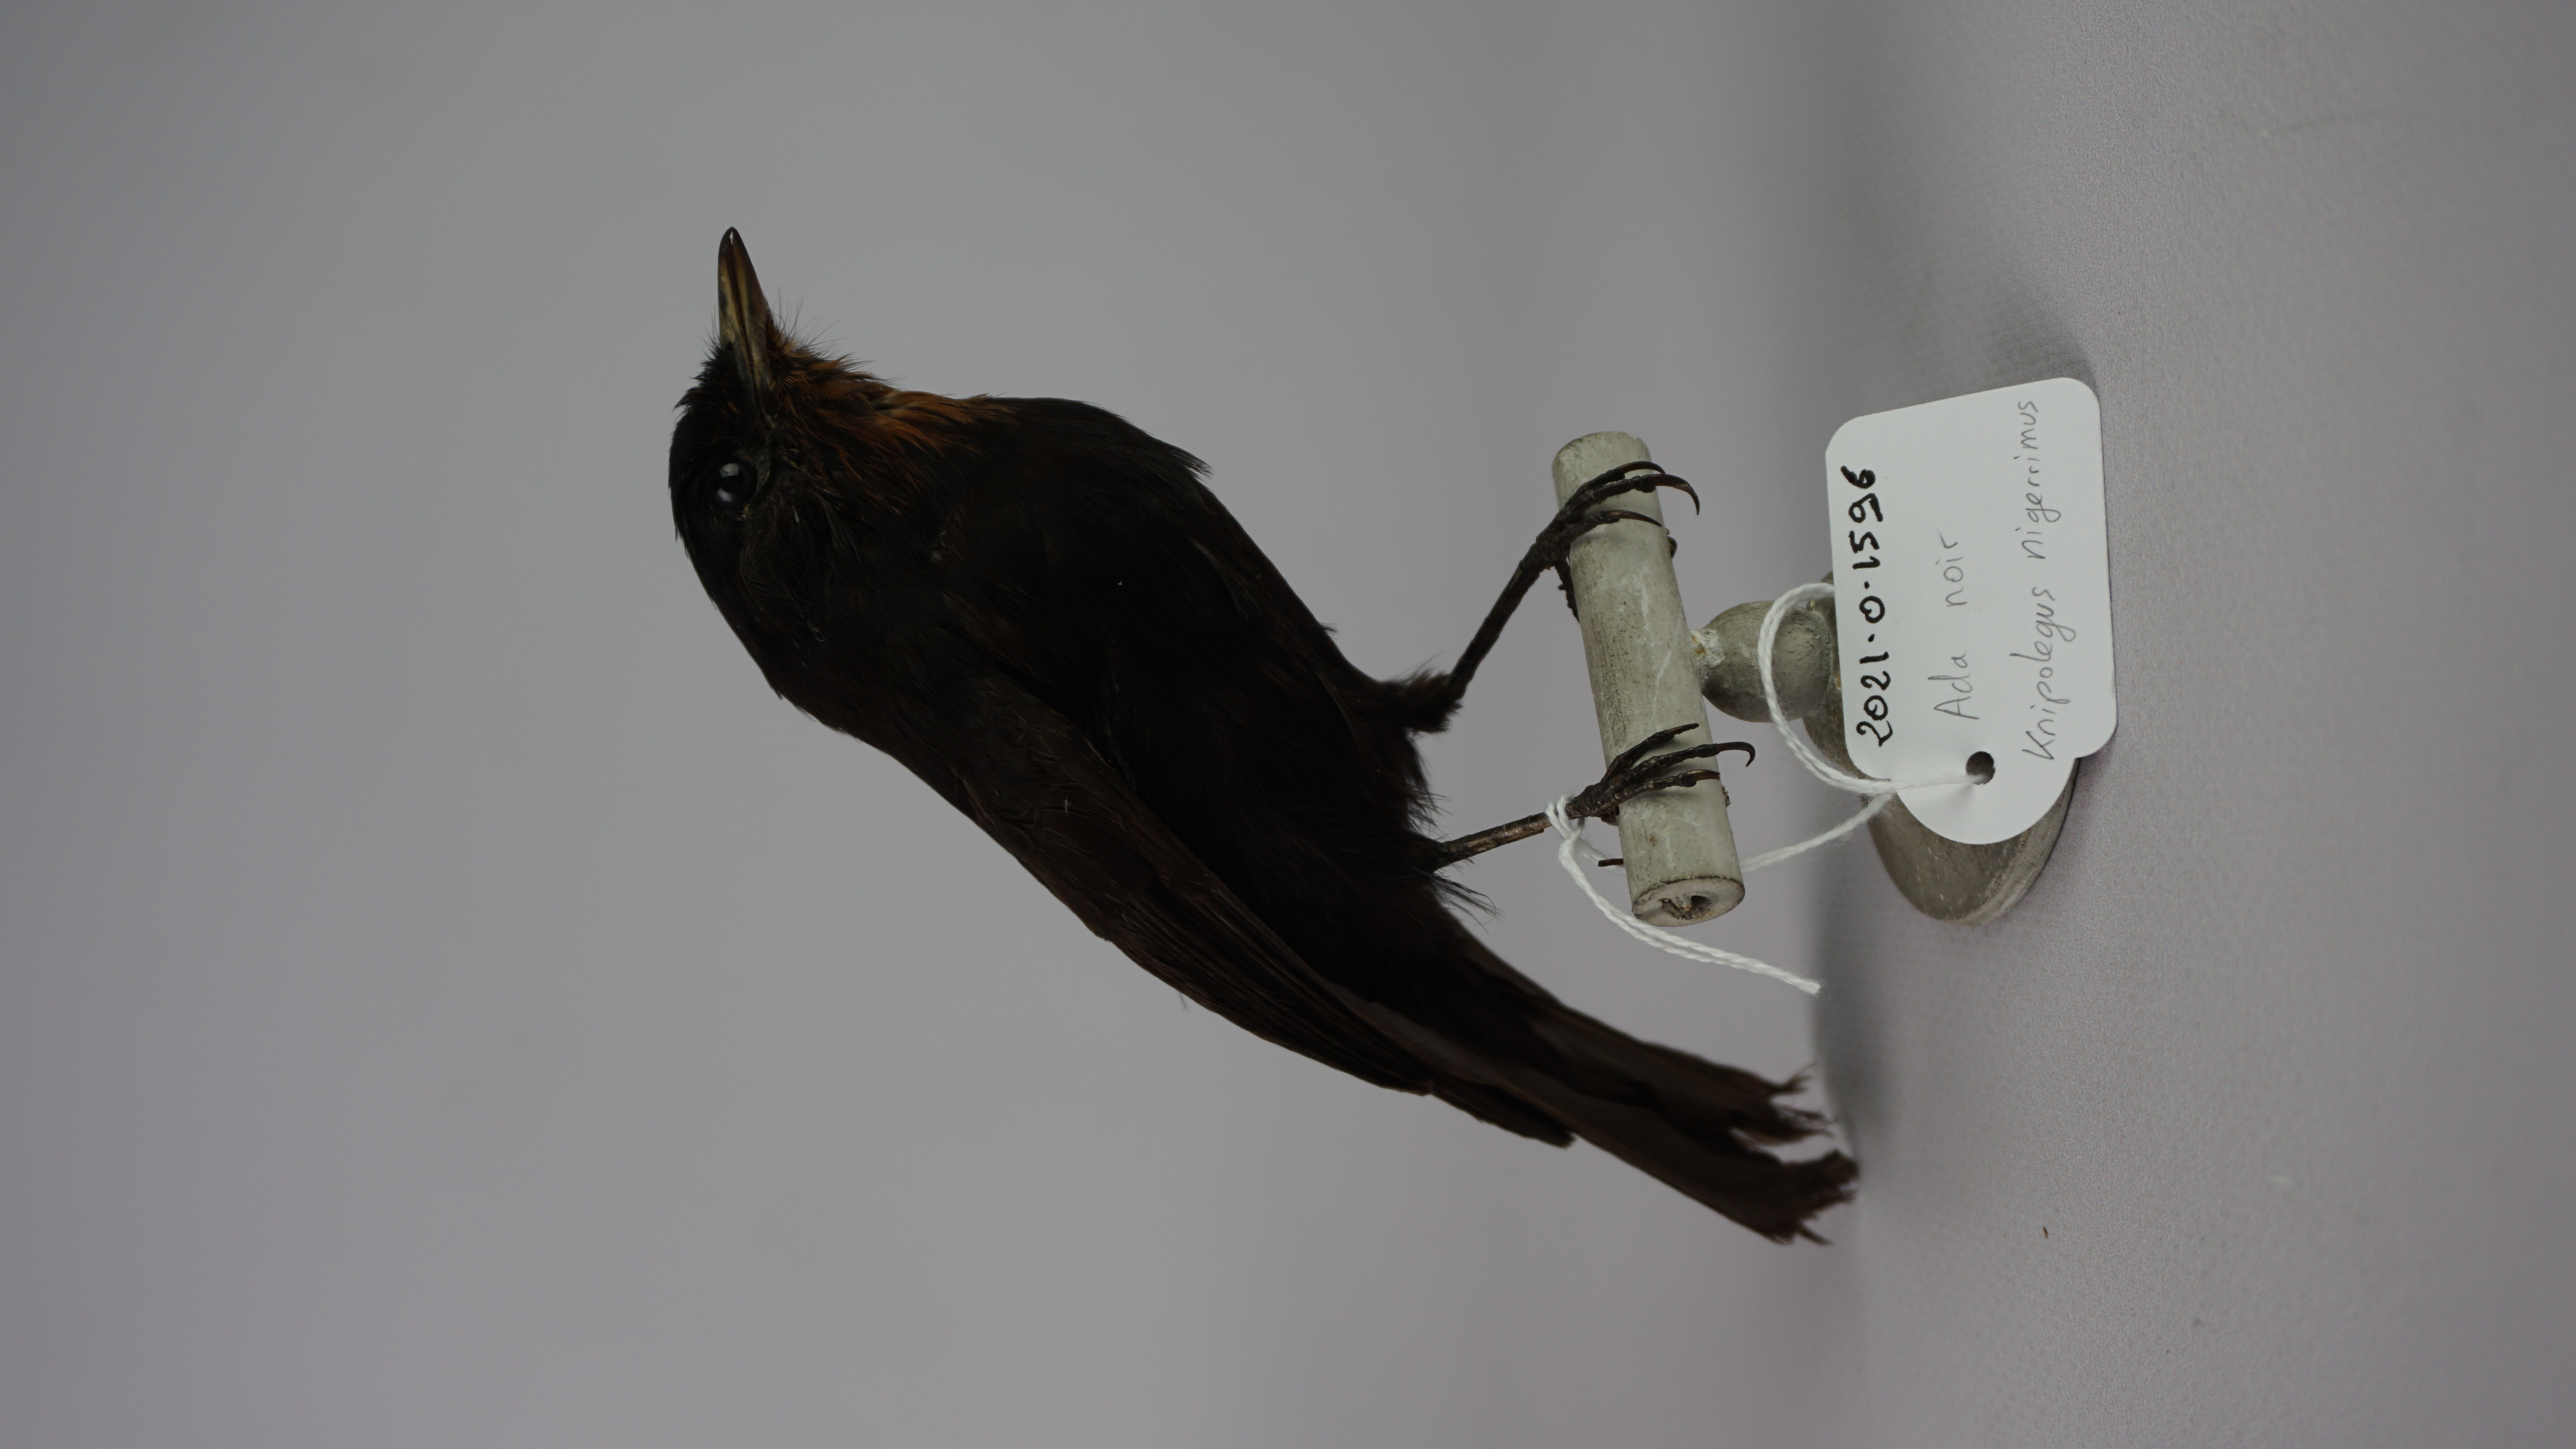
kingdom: Animalia
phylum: Chordata
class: Aves
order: Passeriformes
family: Tyrannidae
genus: Knipolegus
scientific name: Knipolegus nigerrimus
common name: Velvety black tyrant
